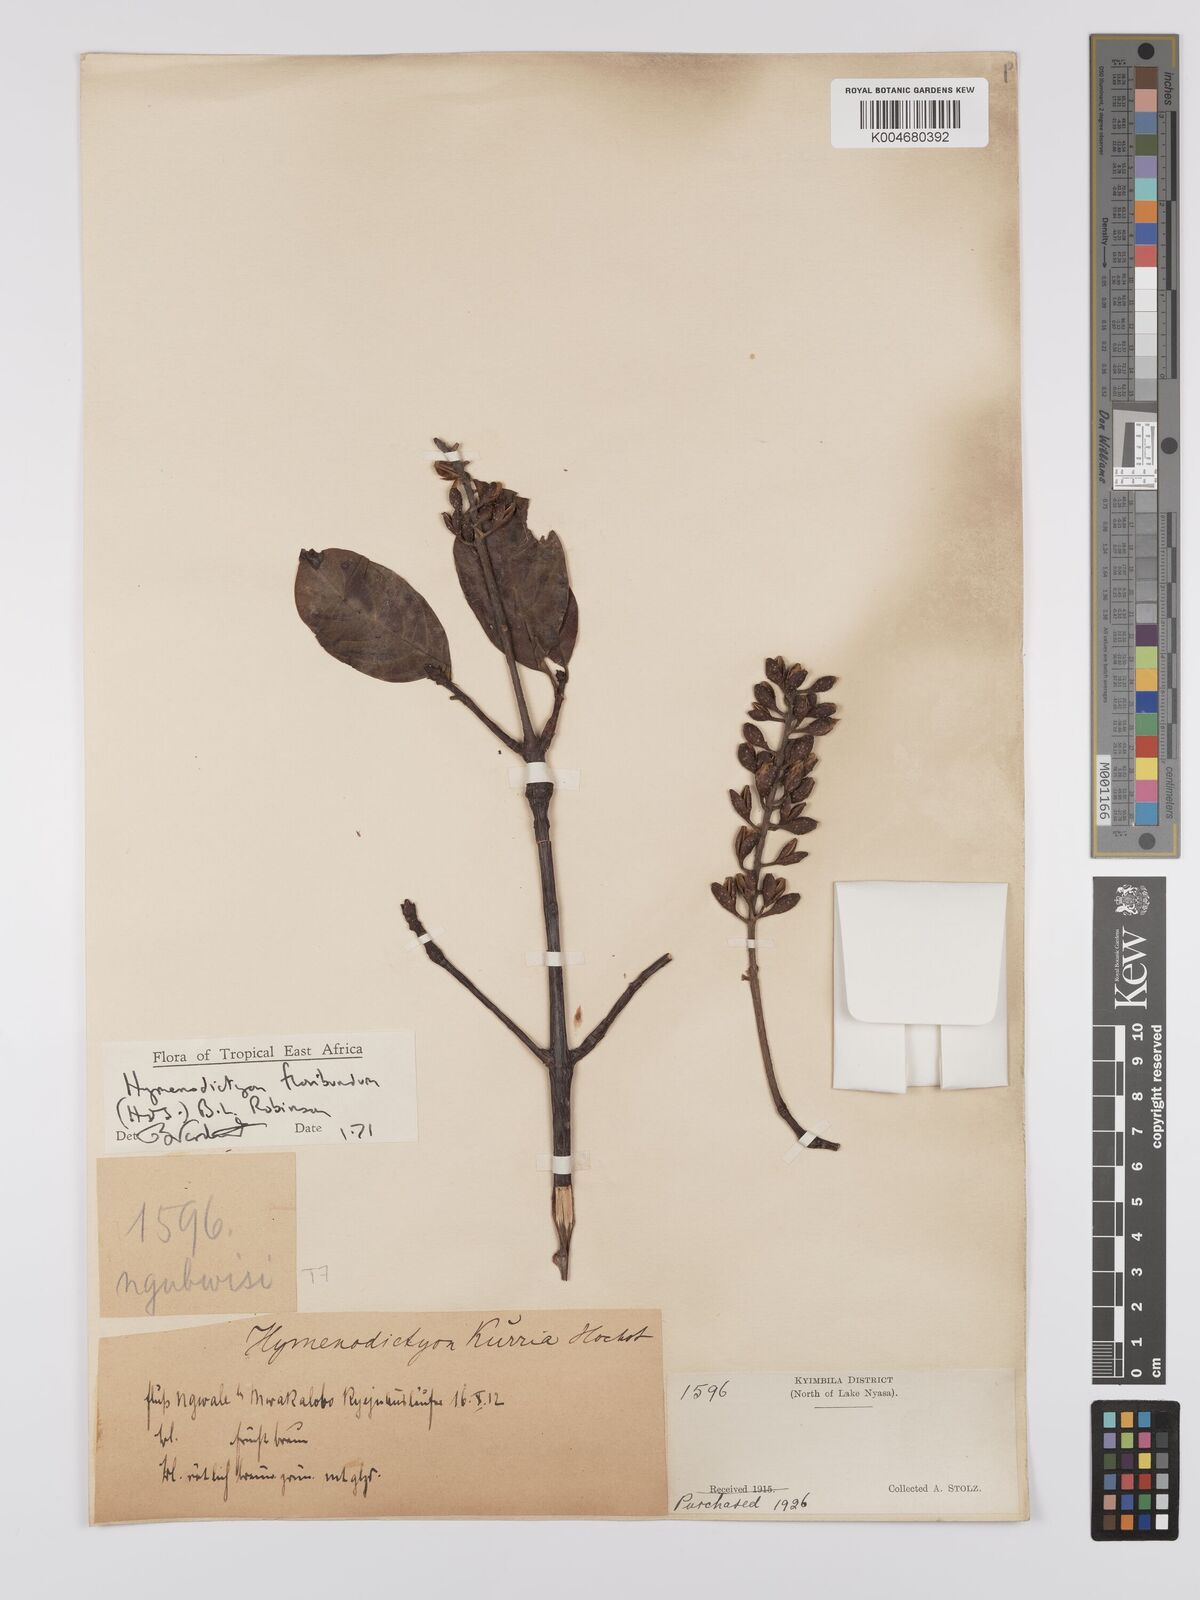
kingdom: Plantae
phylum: Tracheophyta
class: Magnoliopsida
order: Gentianales
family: Rubiaceae
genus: Hymenodictyon
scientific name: Hymenodictyon floribundum
